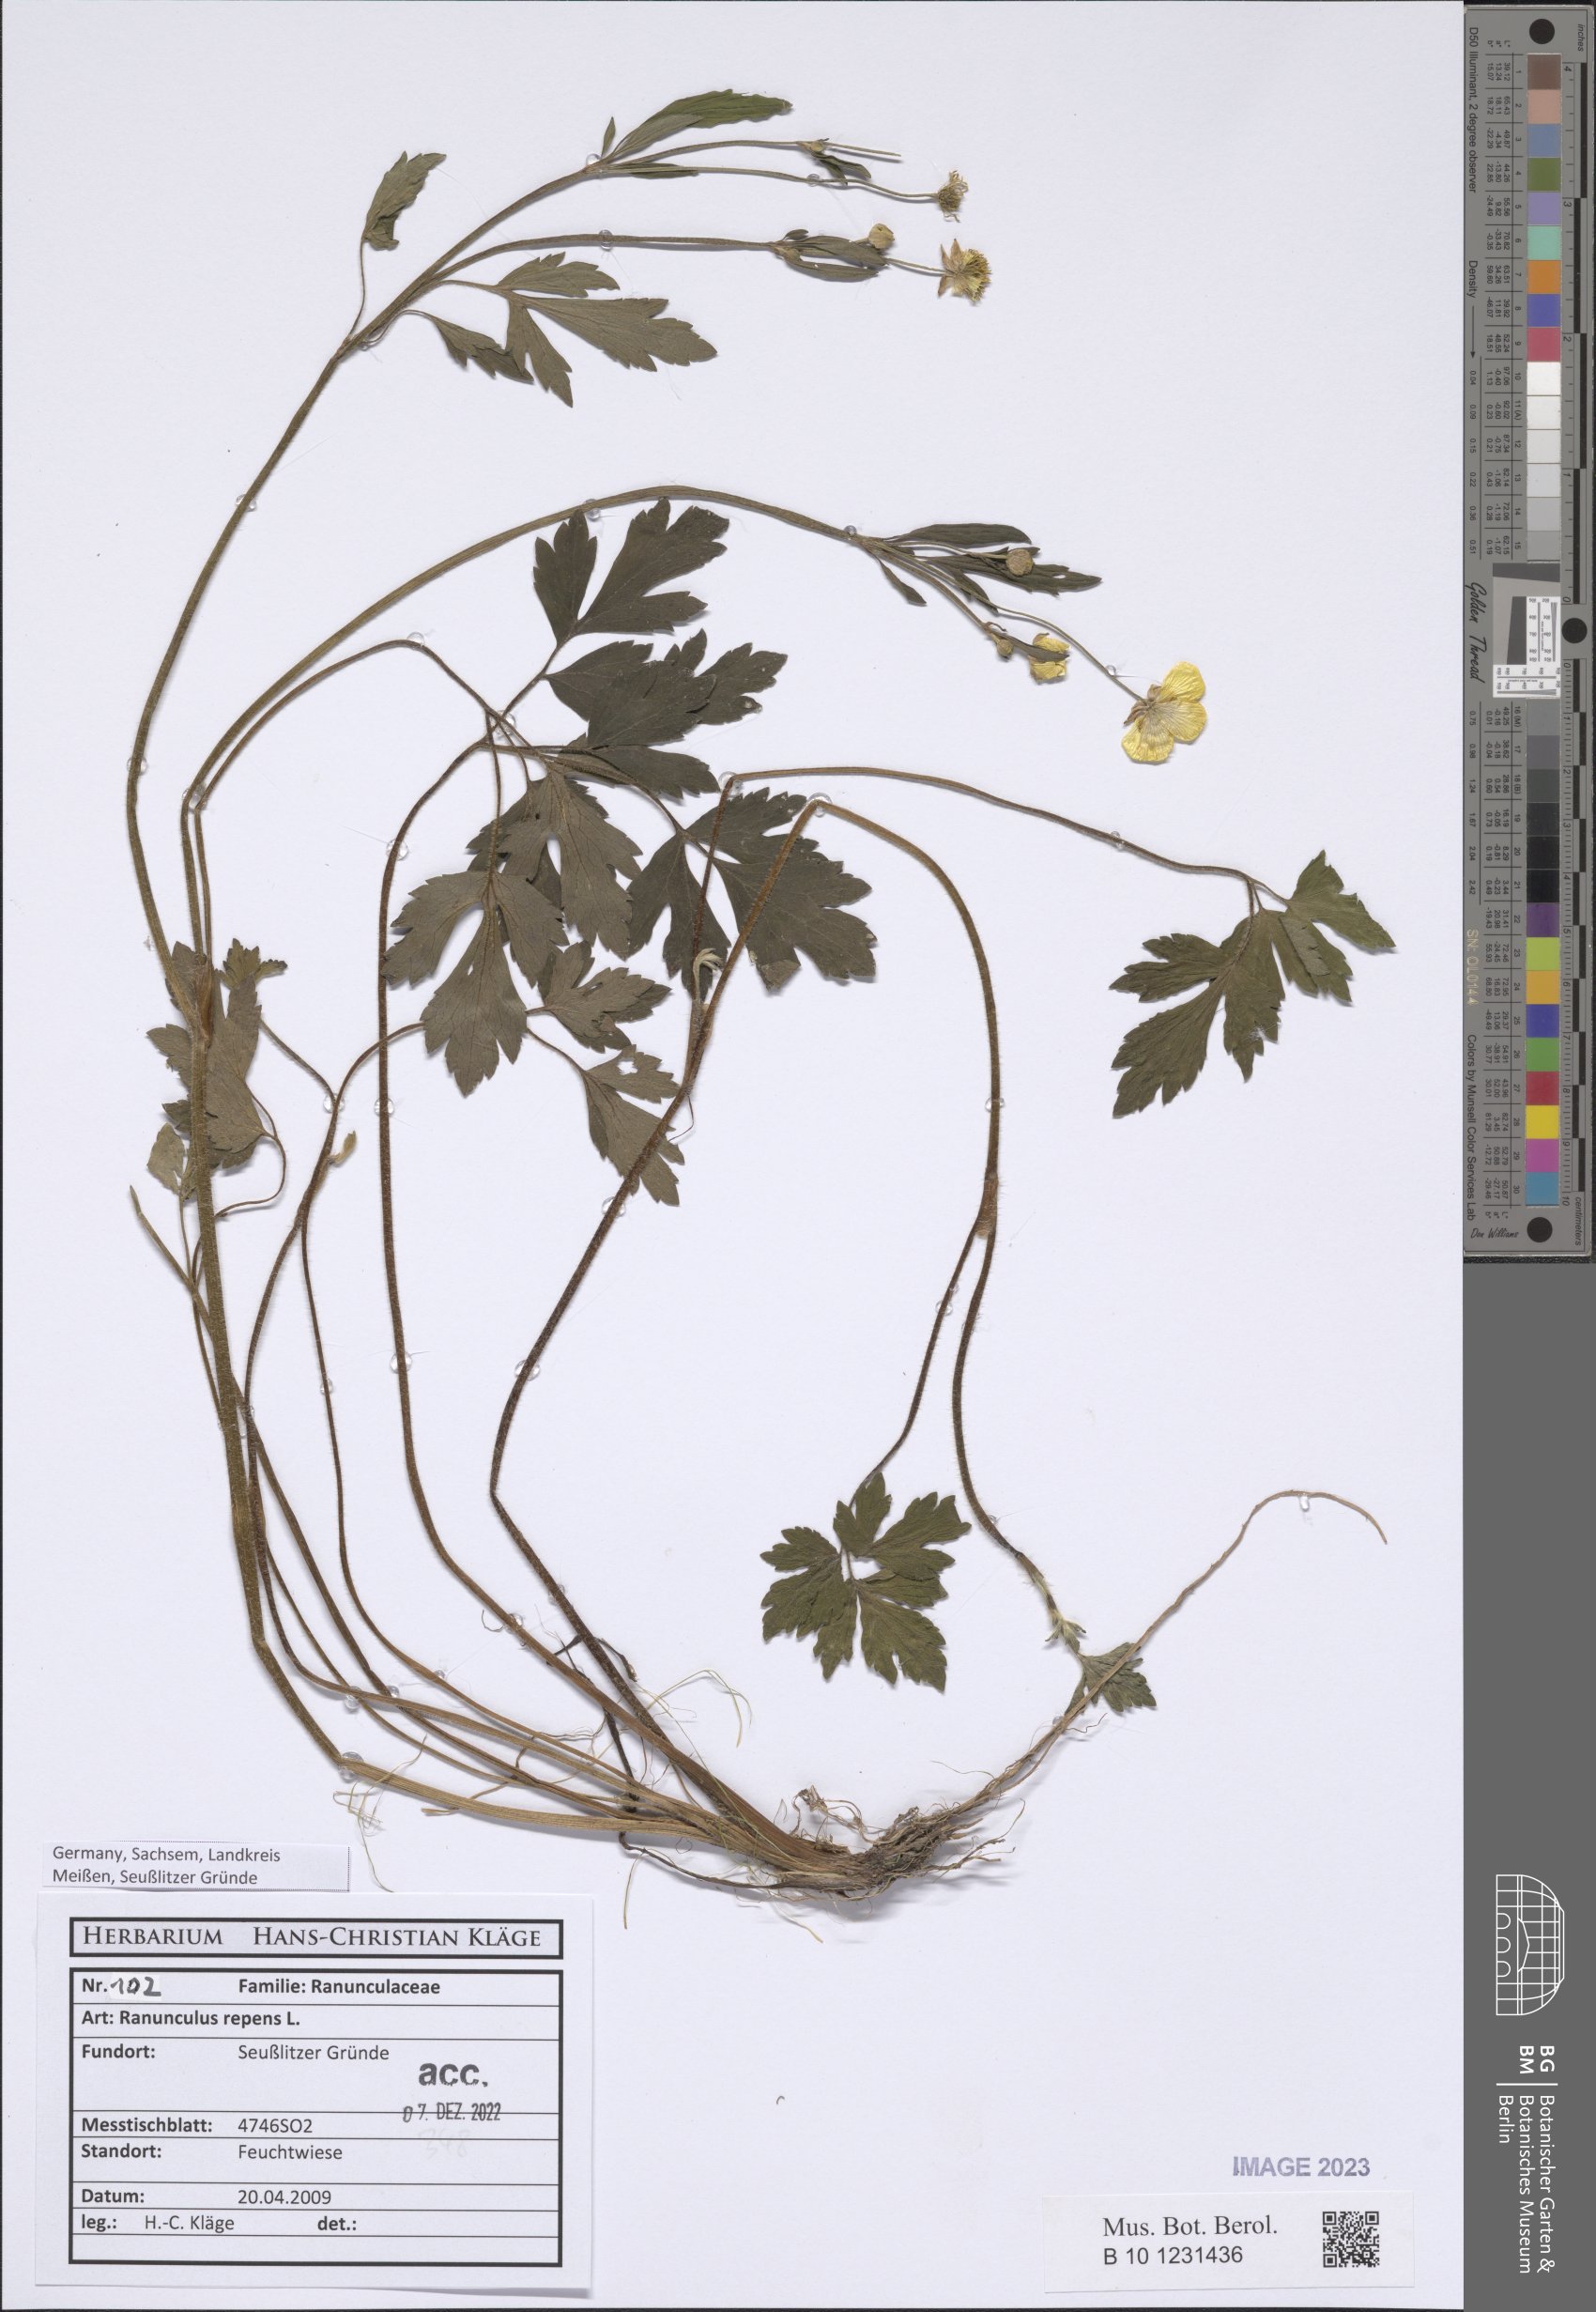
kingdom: Plantae
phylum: Tracheophyta
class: Magnoliopsida
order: Ranunculales
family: Ranunculaceae
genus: Ranunculus
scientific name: Ranunculus repens
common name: Creeping buttercup
